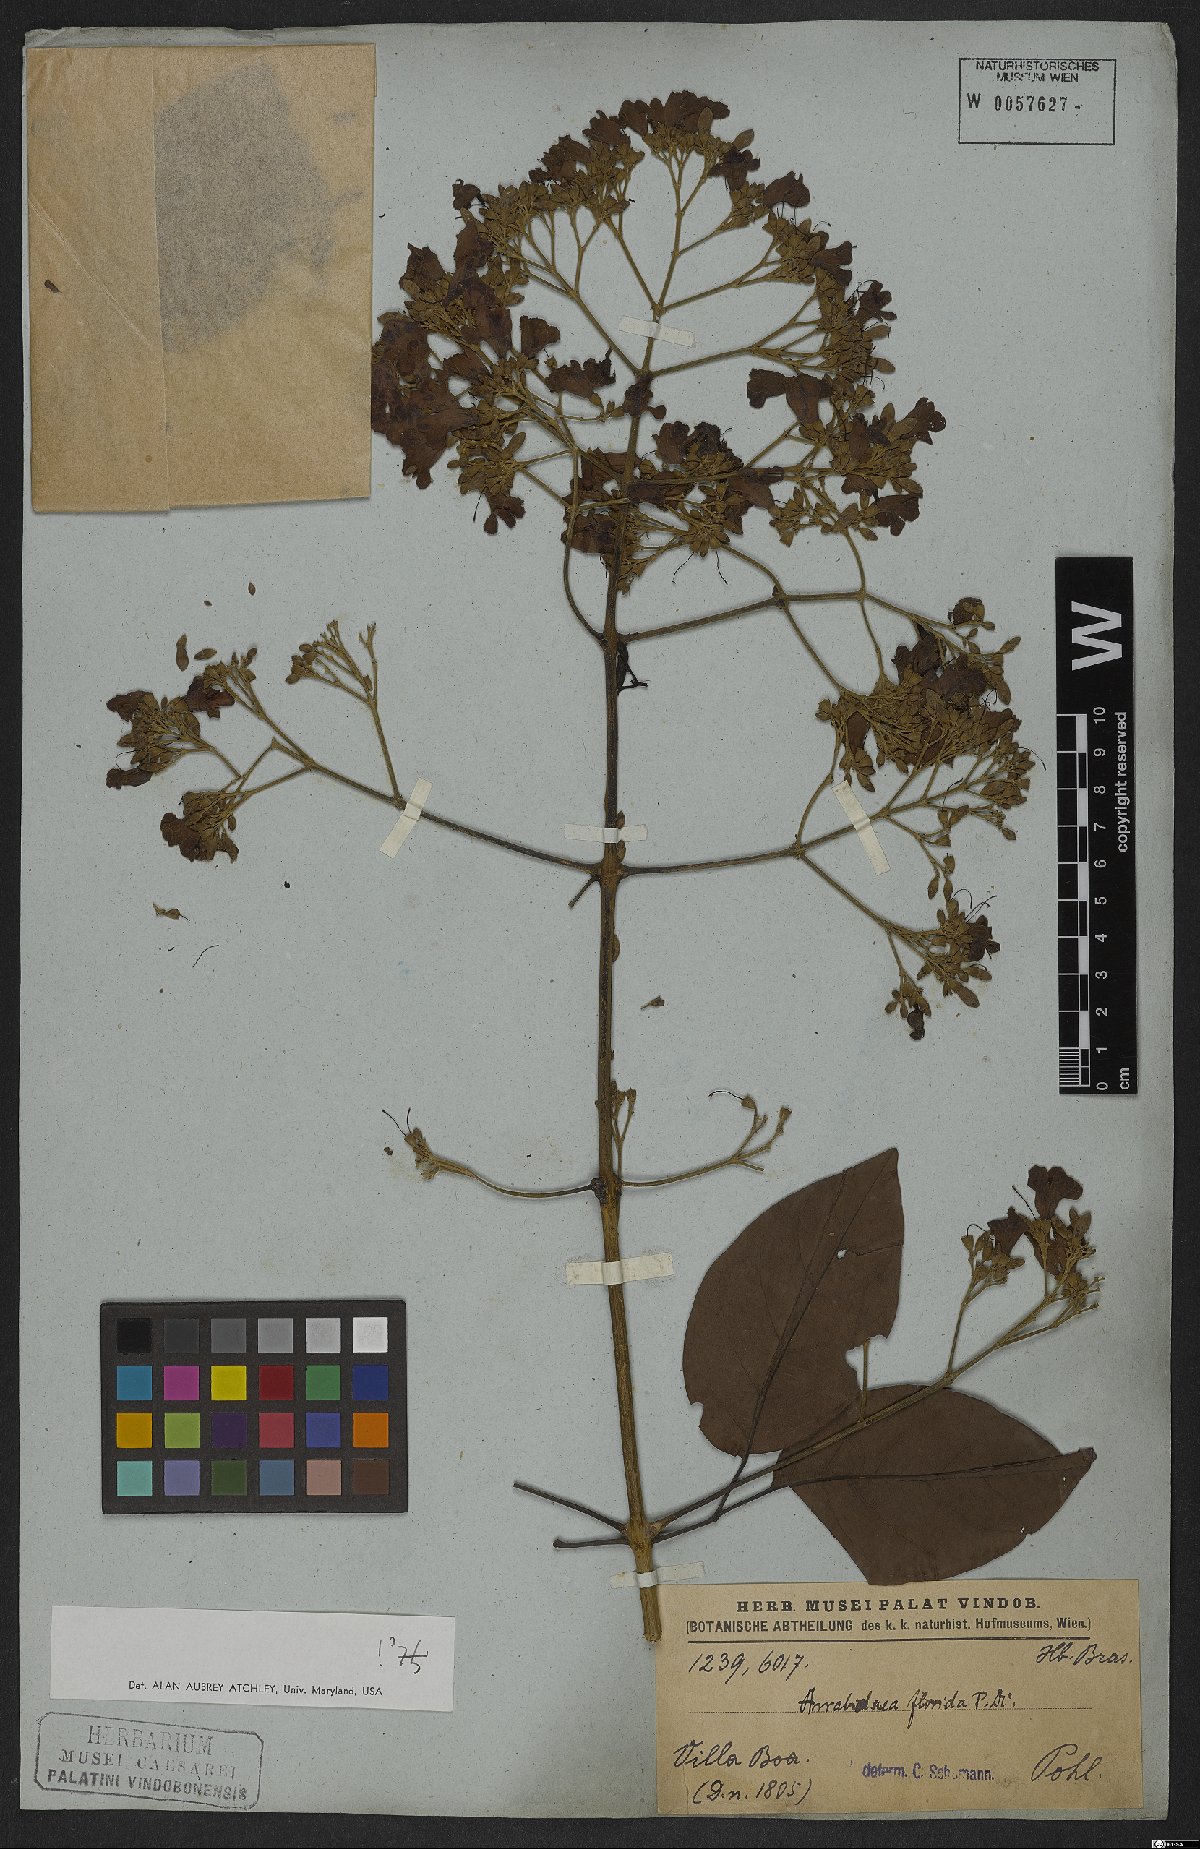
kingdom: Plantae
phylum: Tracheophyta
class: Magnoliopsida
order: Lamiales
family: Bignoniaceae
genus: Fridericia
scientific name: Fridericia florida
